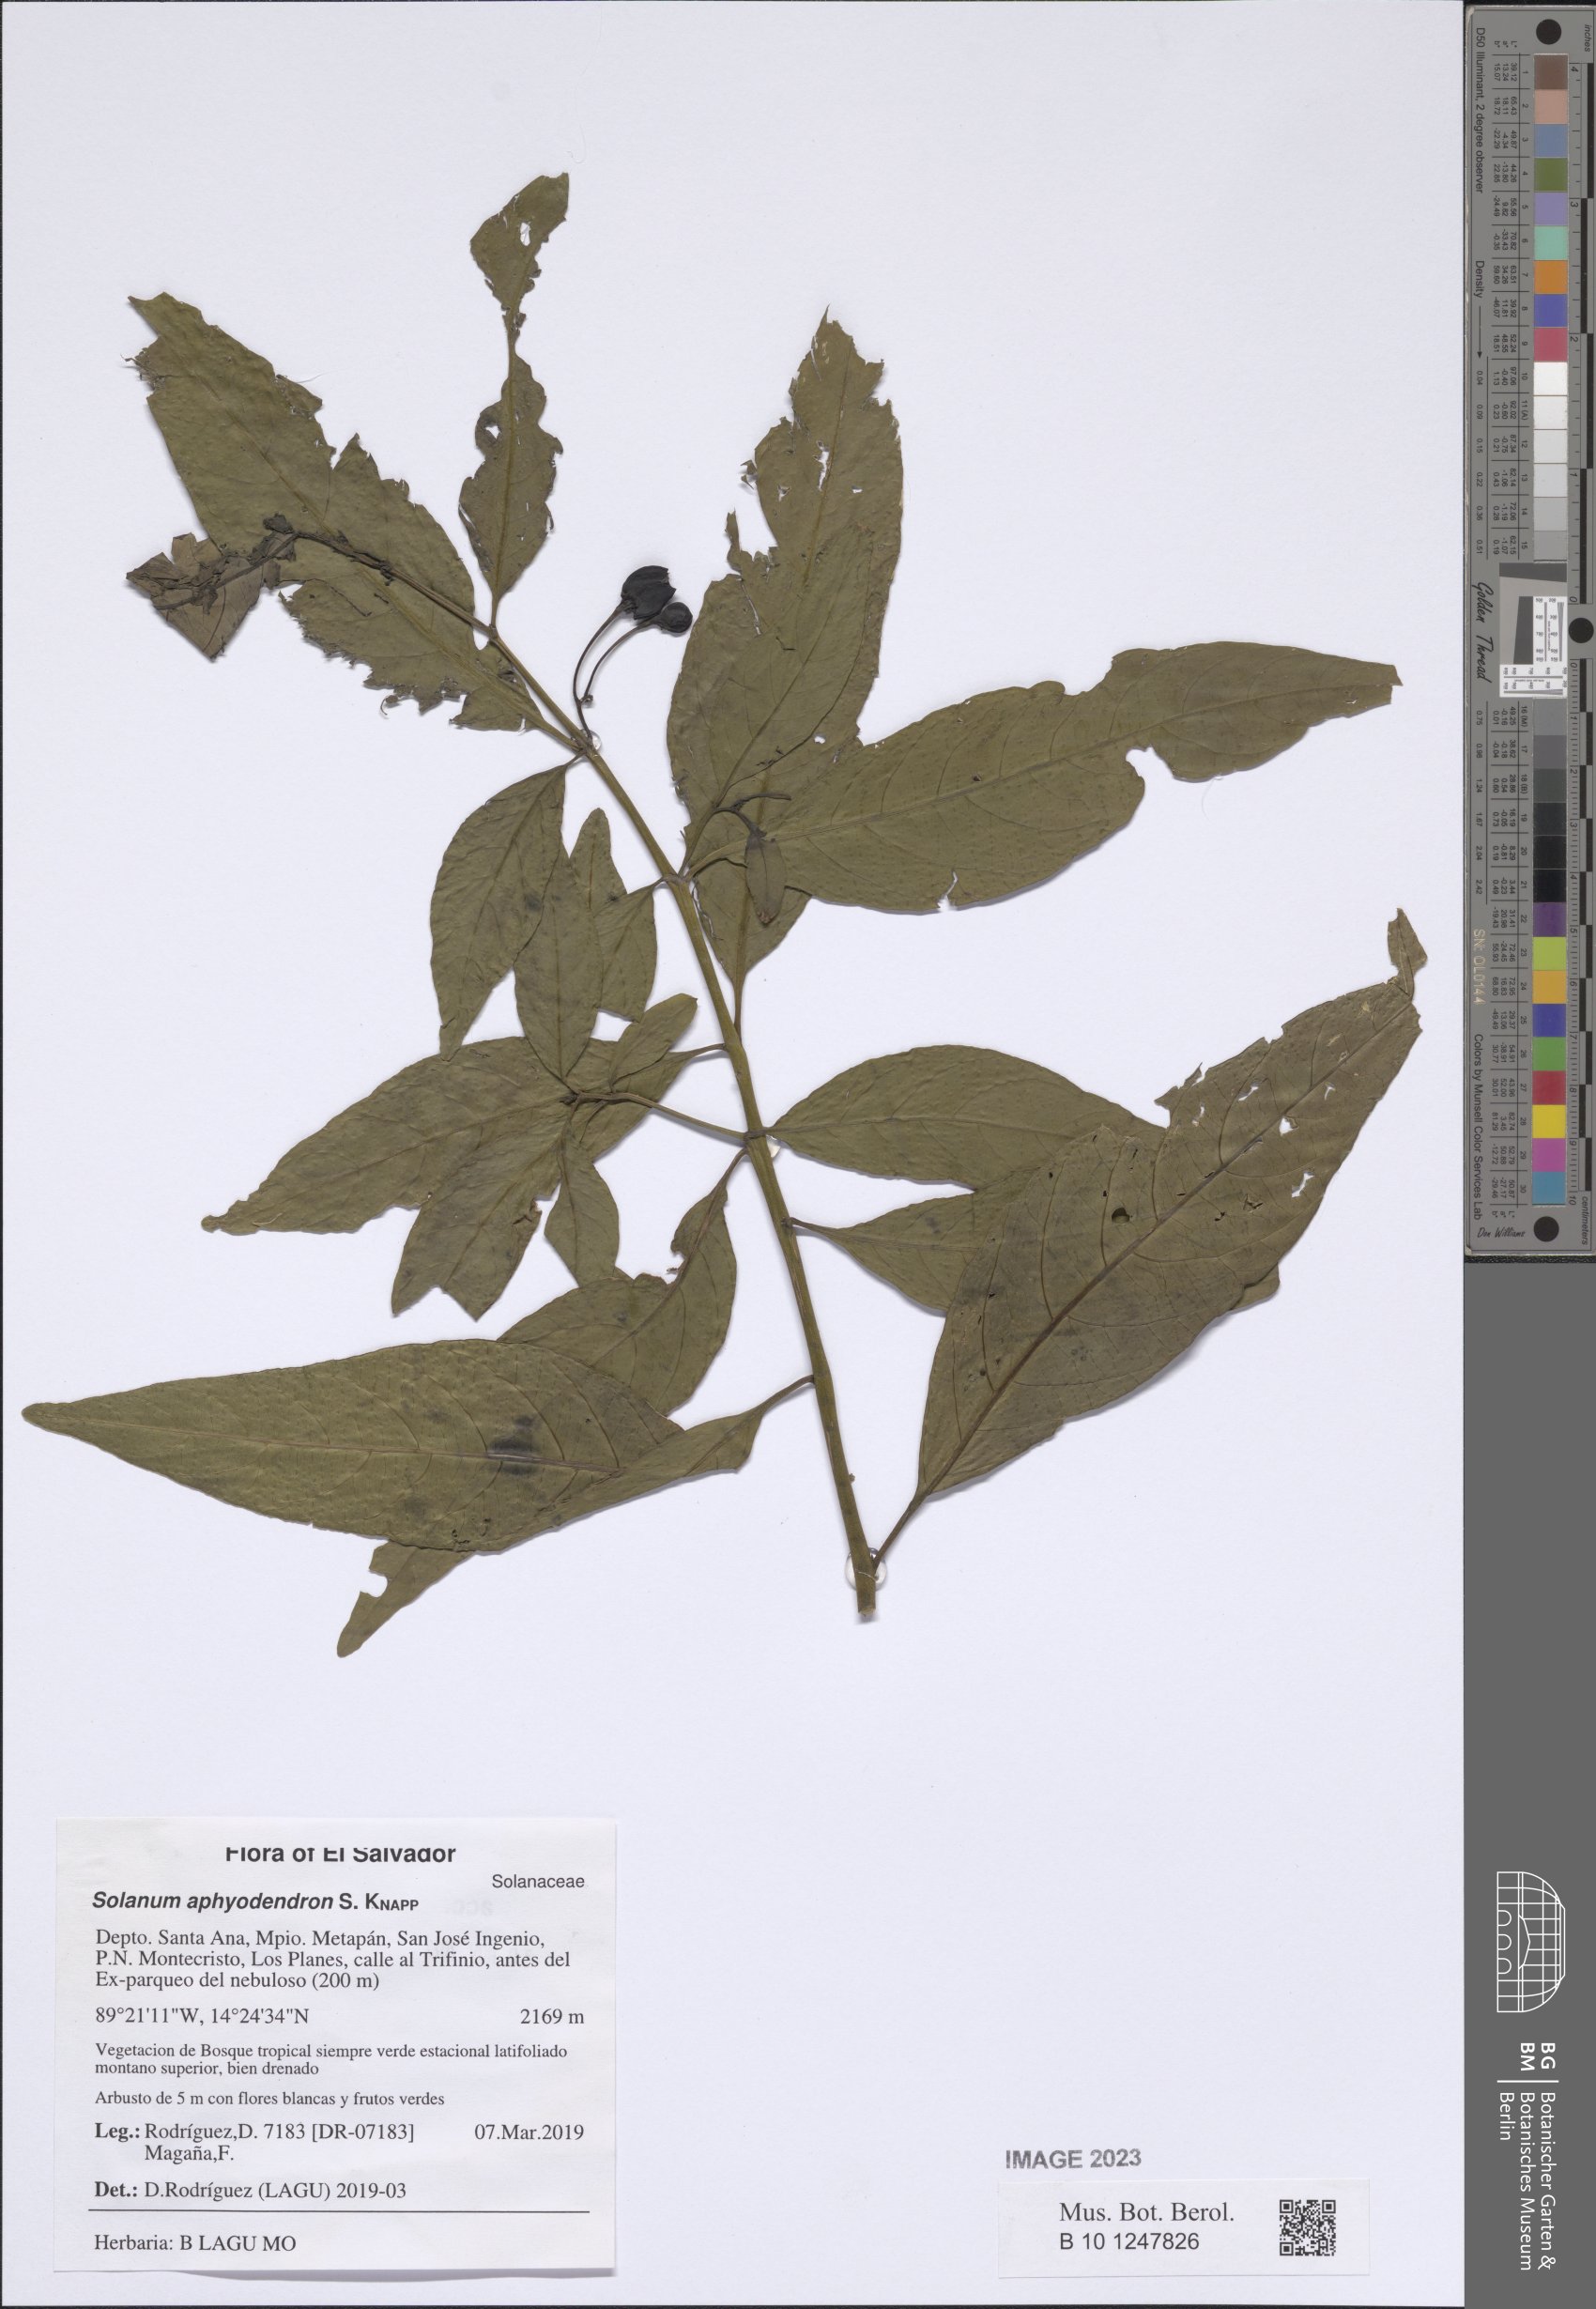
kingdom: Plantae
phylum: Tracheophyta
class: Magnoliopsida
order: Solanales
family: Solanaceae
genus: Solanum
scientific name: Solanum aphyodendron
